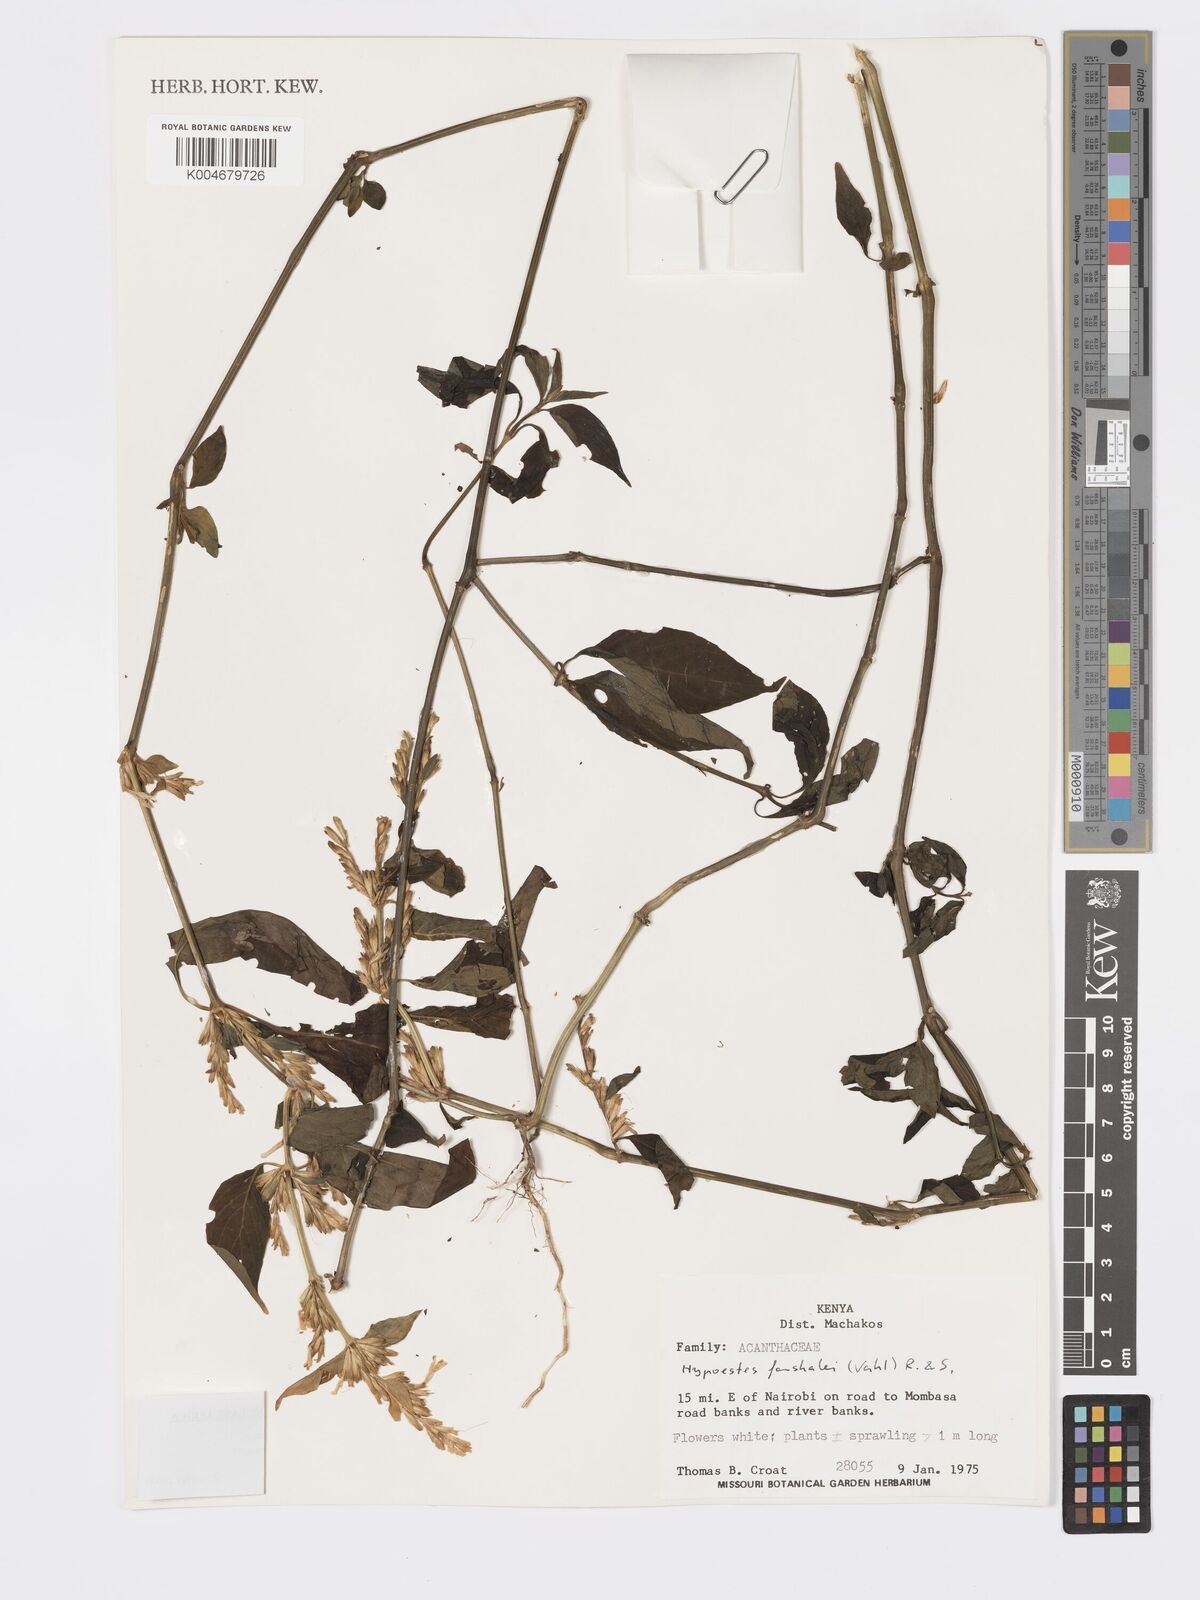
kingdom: Plantae
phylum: Tracheophyta
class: Magnoliopsida
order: Lamiales
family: Acanthaceae
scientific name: Acanthaceae
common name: Acanthaceae
